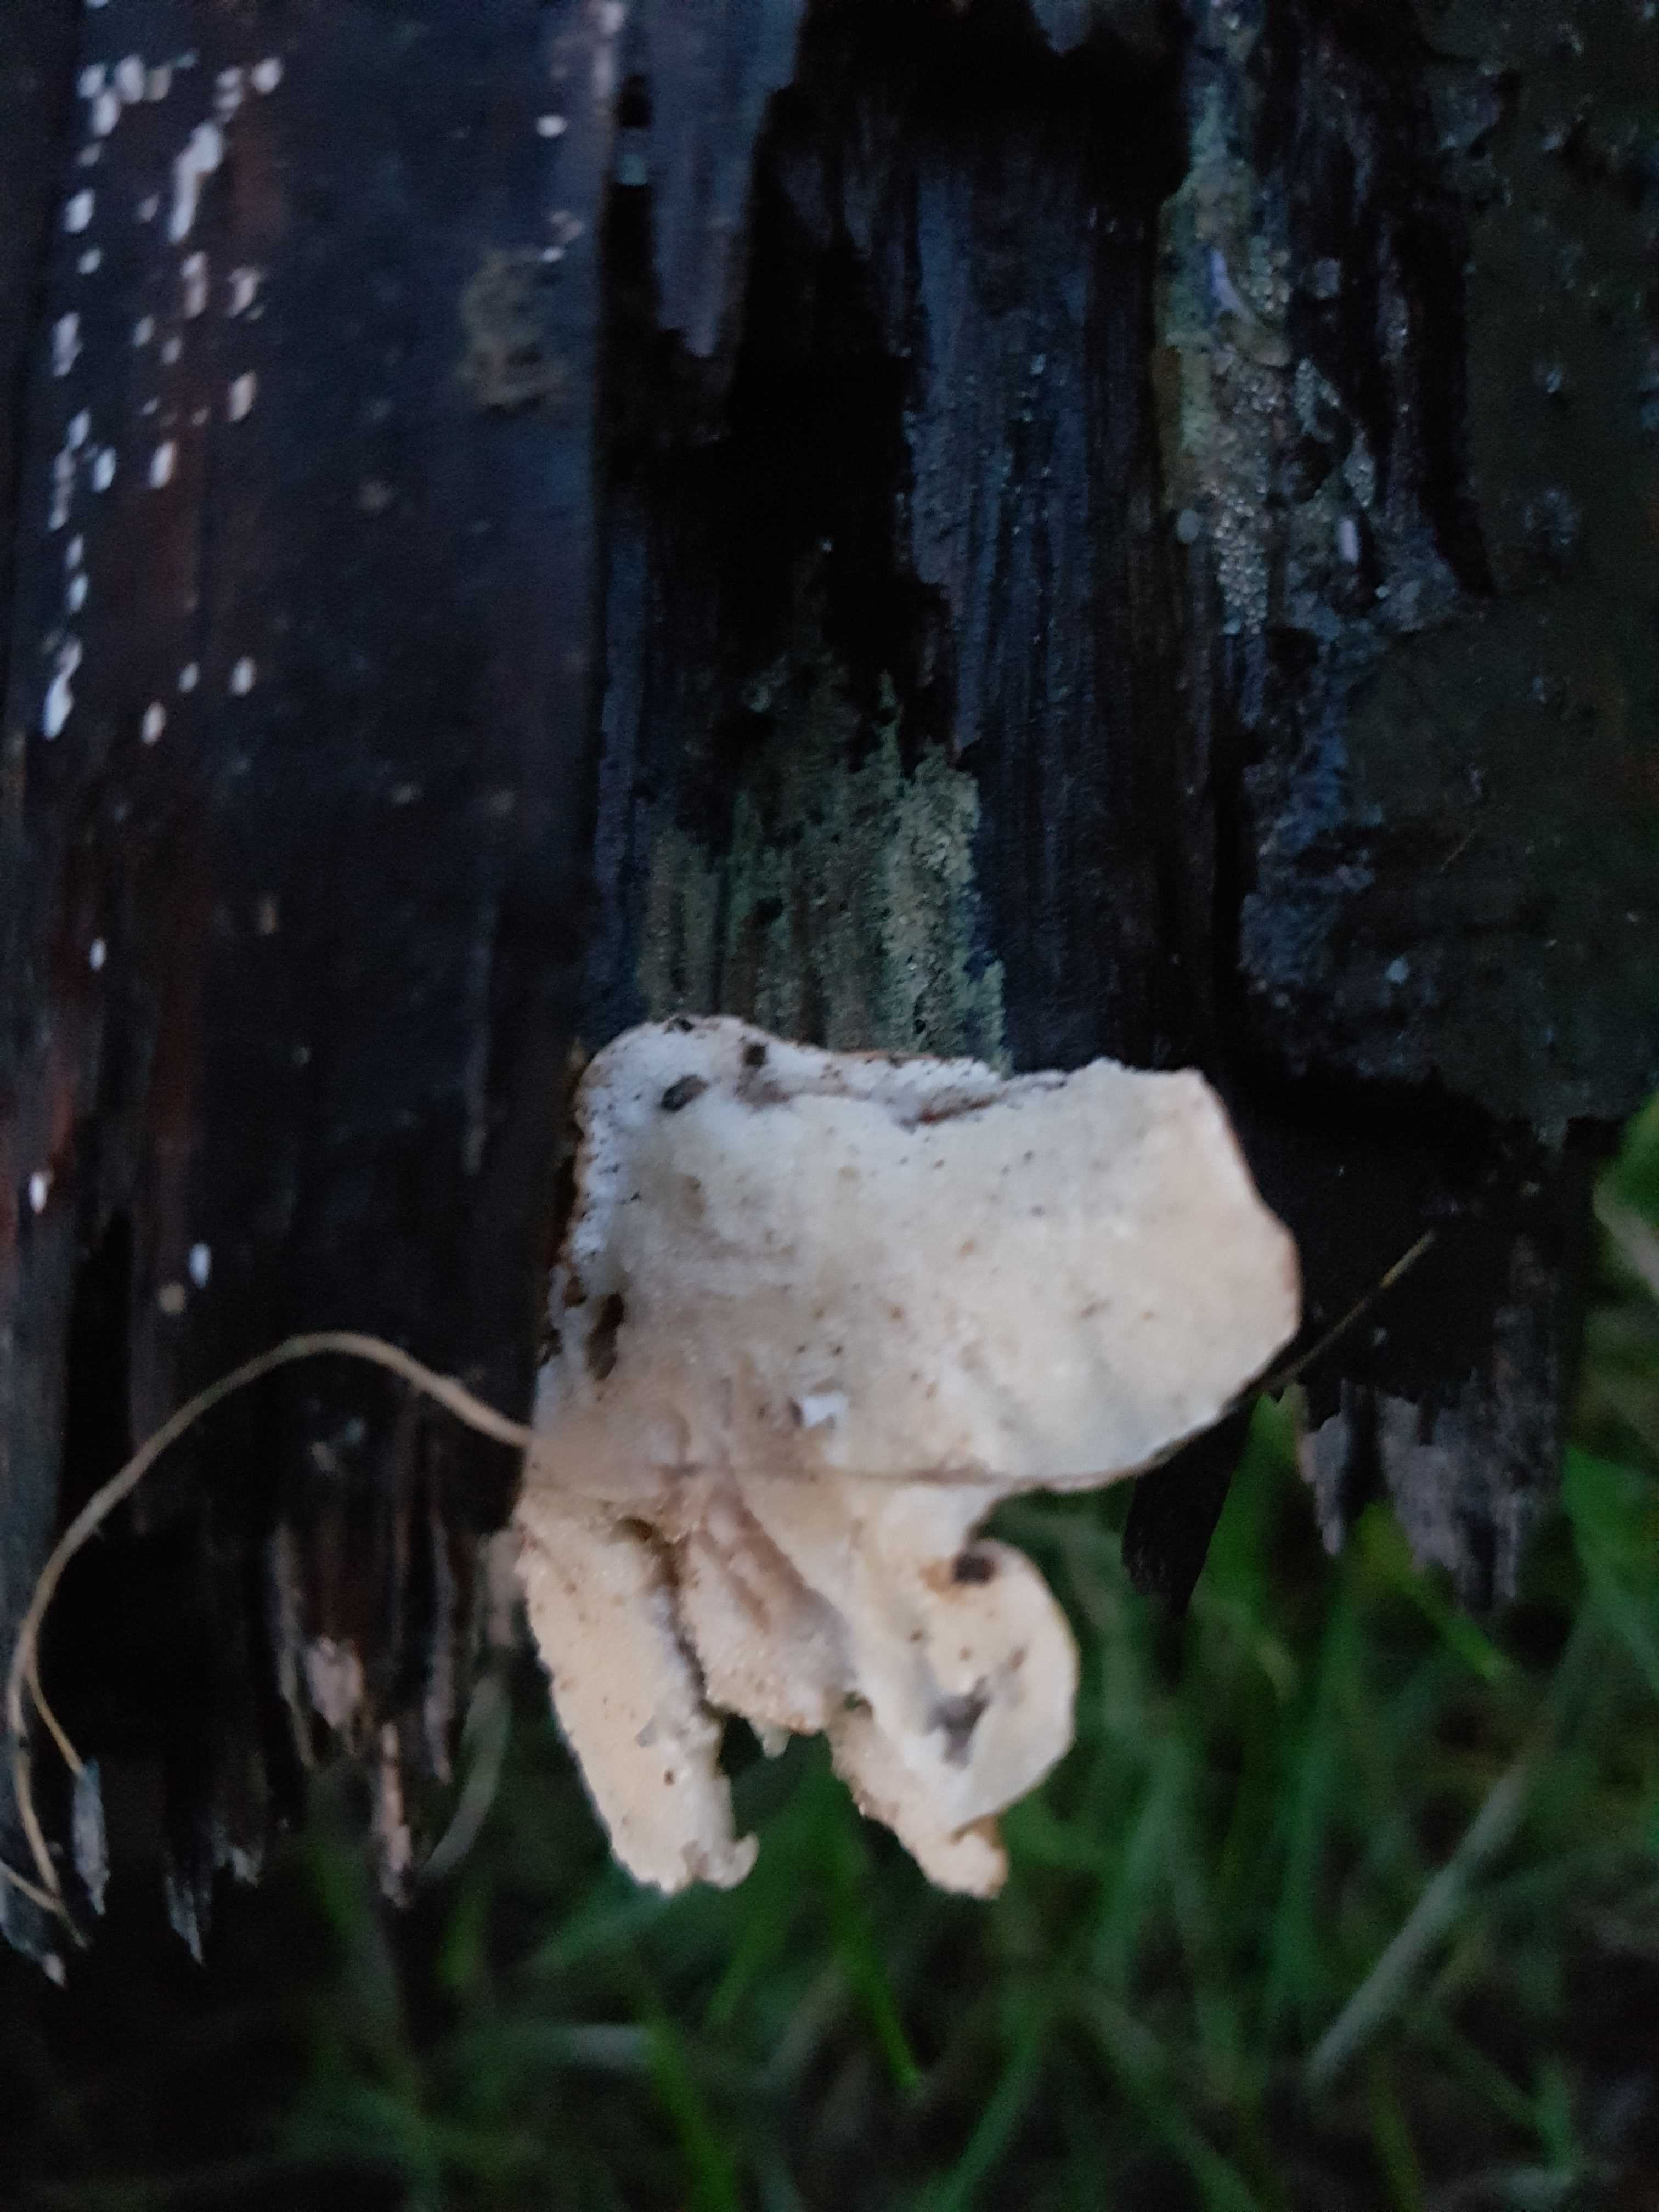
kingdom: Fungi
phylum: Basidiomycota
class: Agaricomycetes
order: Polyporales
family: Polyporaceae
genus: Trametes
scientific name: Trametes versicolor
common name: broget læderporesvamp
